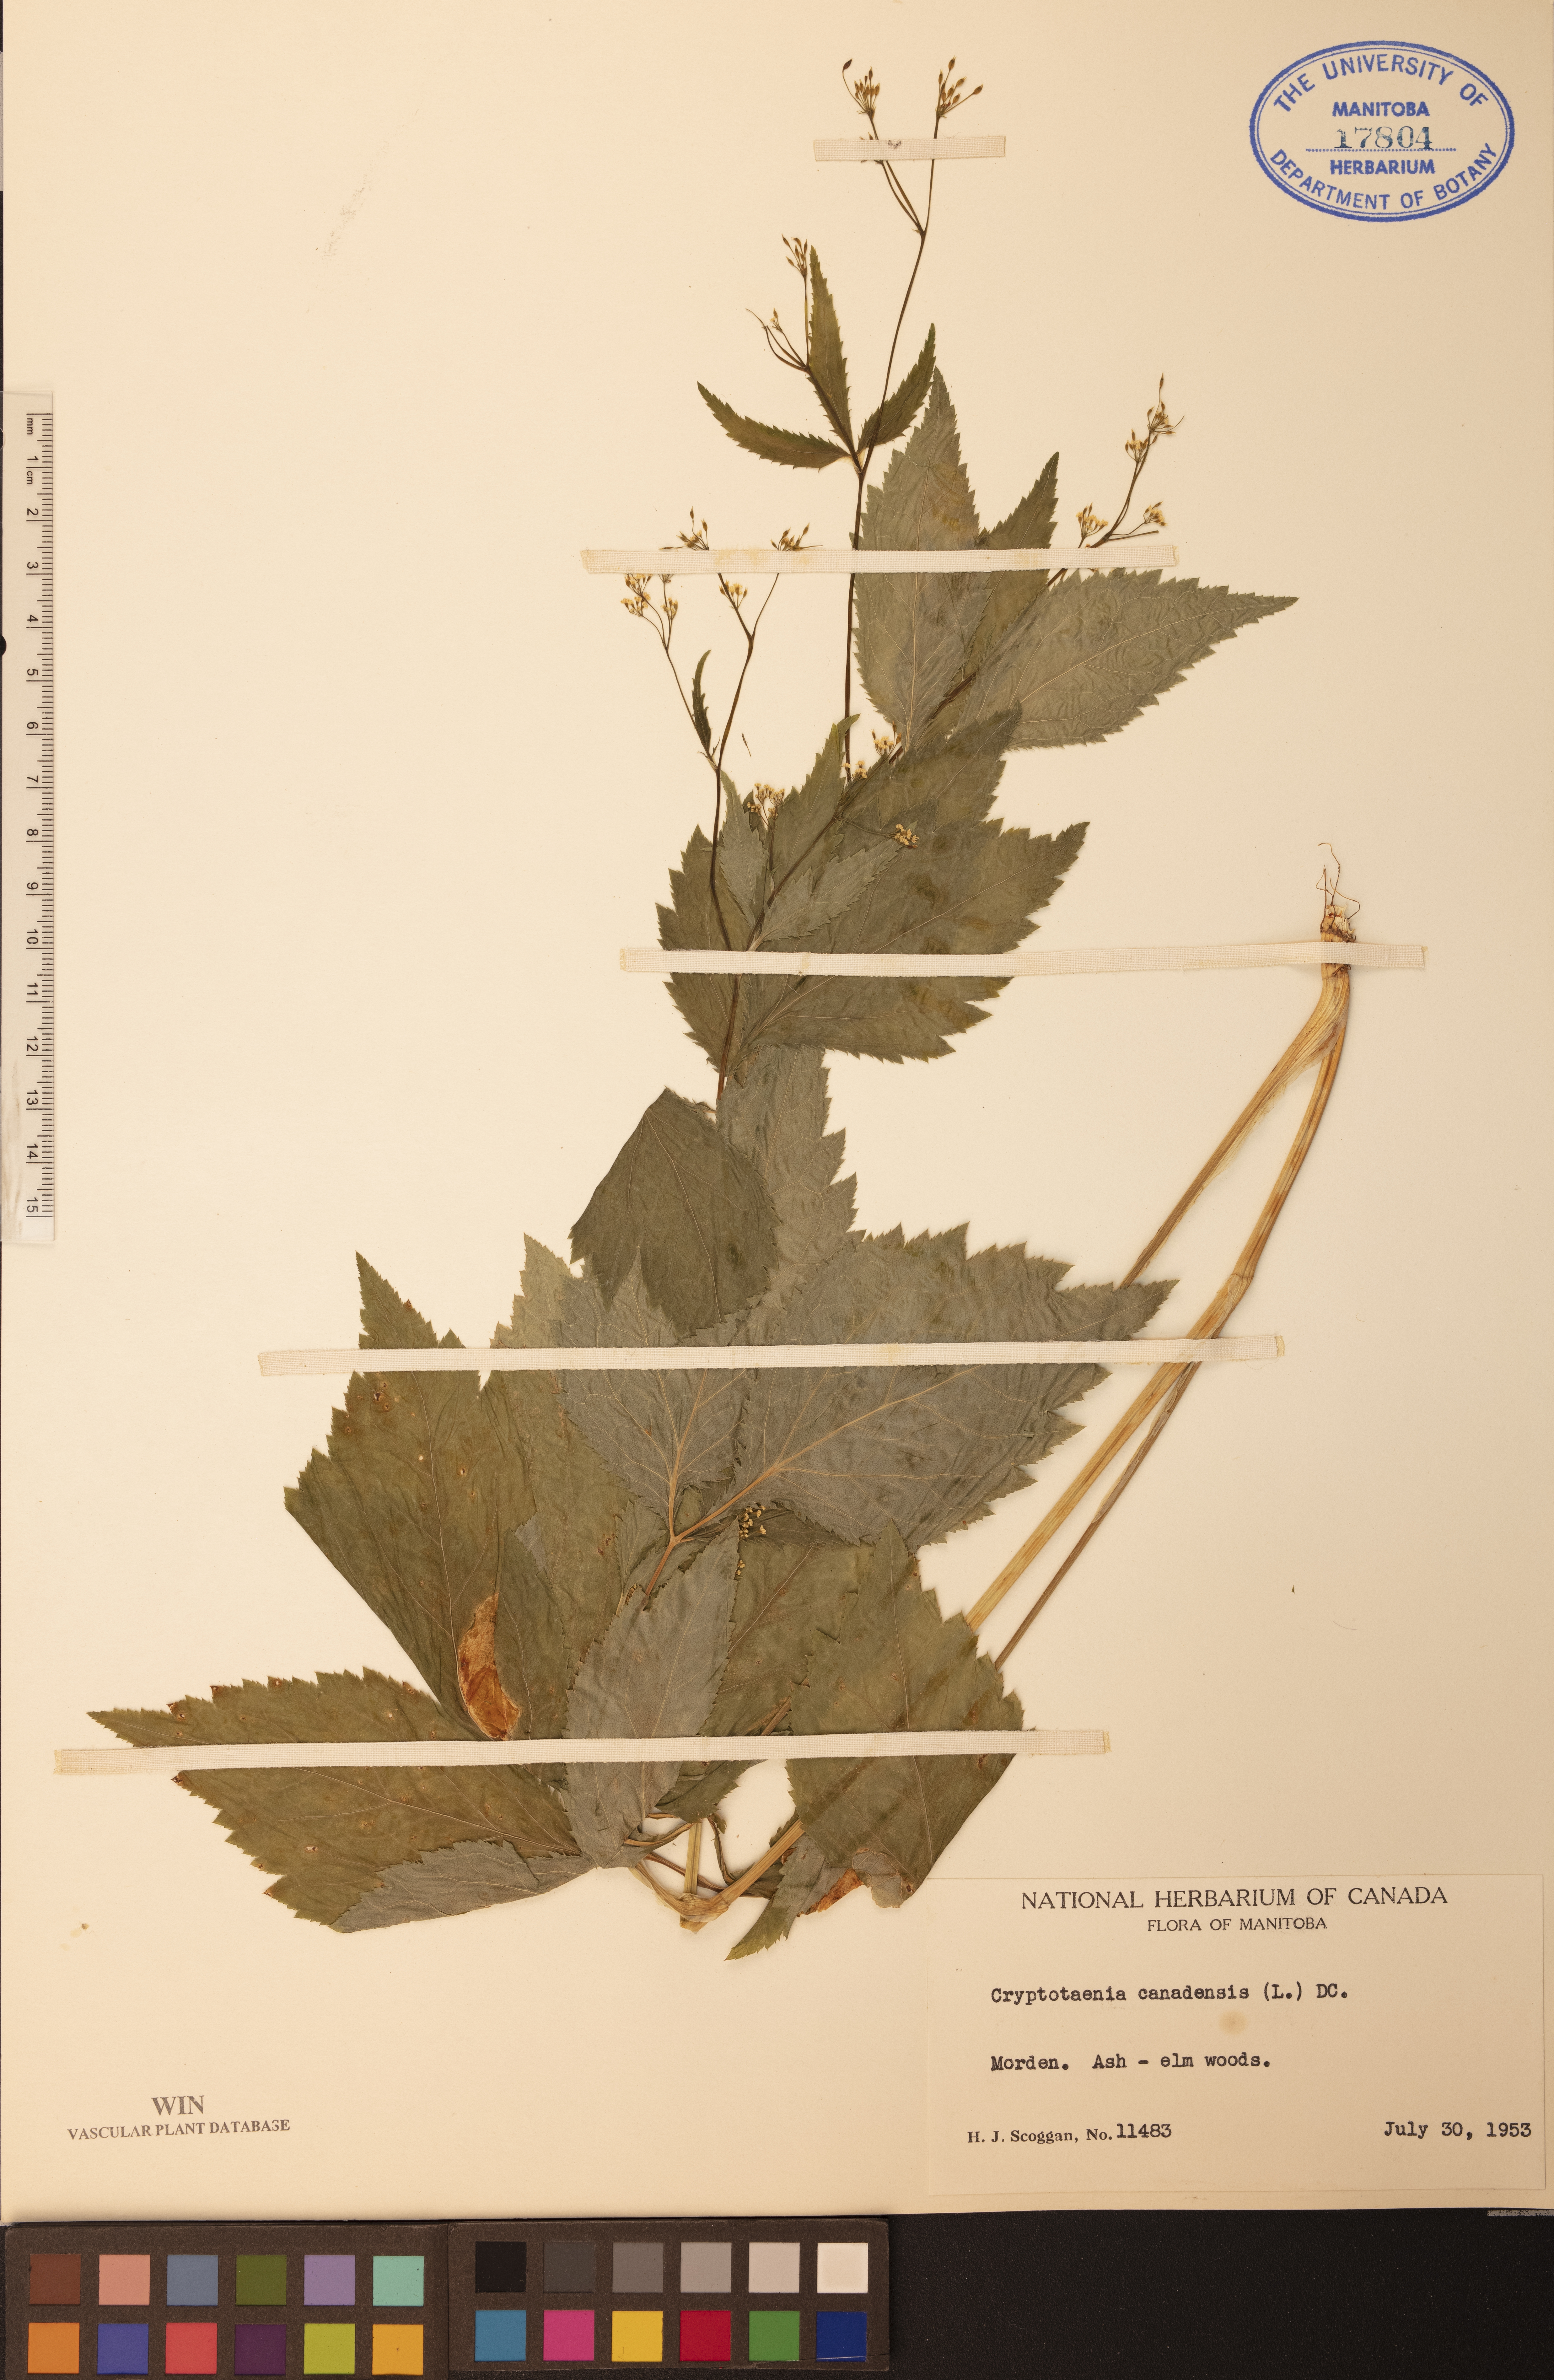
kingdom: Plantae
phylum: Tracheophyta
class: Magnoliopsida
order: Apiales
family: Apiaceae
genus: Cryptotaenia
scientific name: Cryptotaenia canadensis
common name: Honewort
